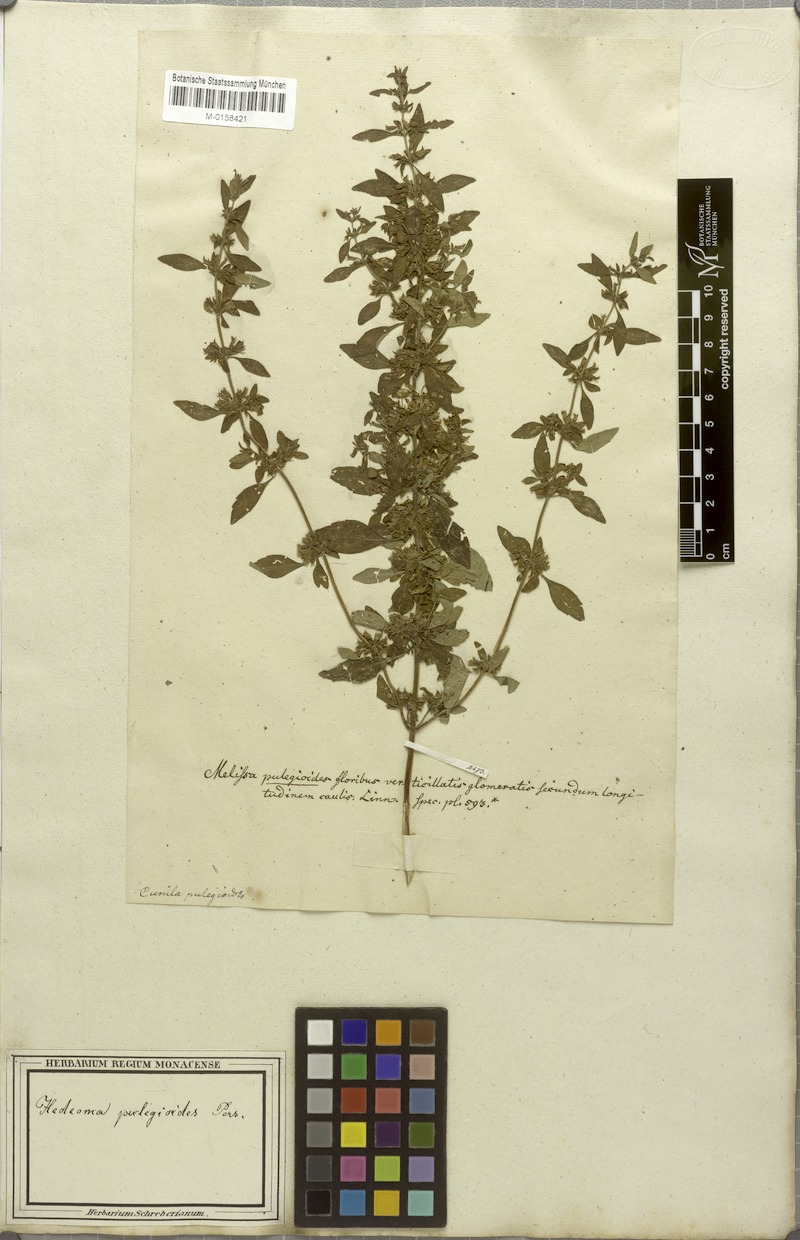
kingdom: Plantae
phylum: Tracheophyta
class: Magnoliopsida
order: Lamiales
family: Lamiaceae
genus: Hedeoma
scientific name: Hedeoma pulegioides
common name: American false pennyroyal
